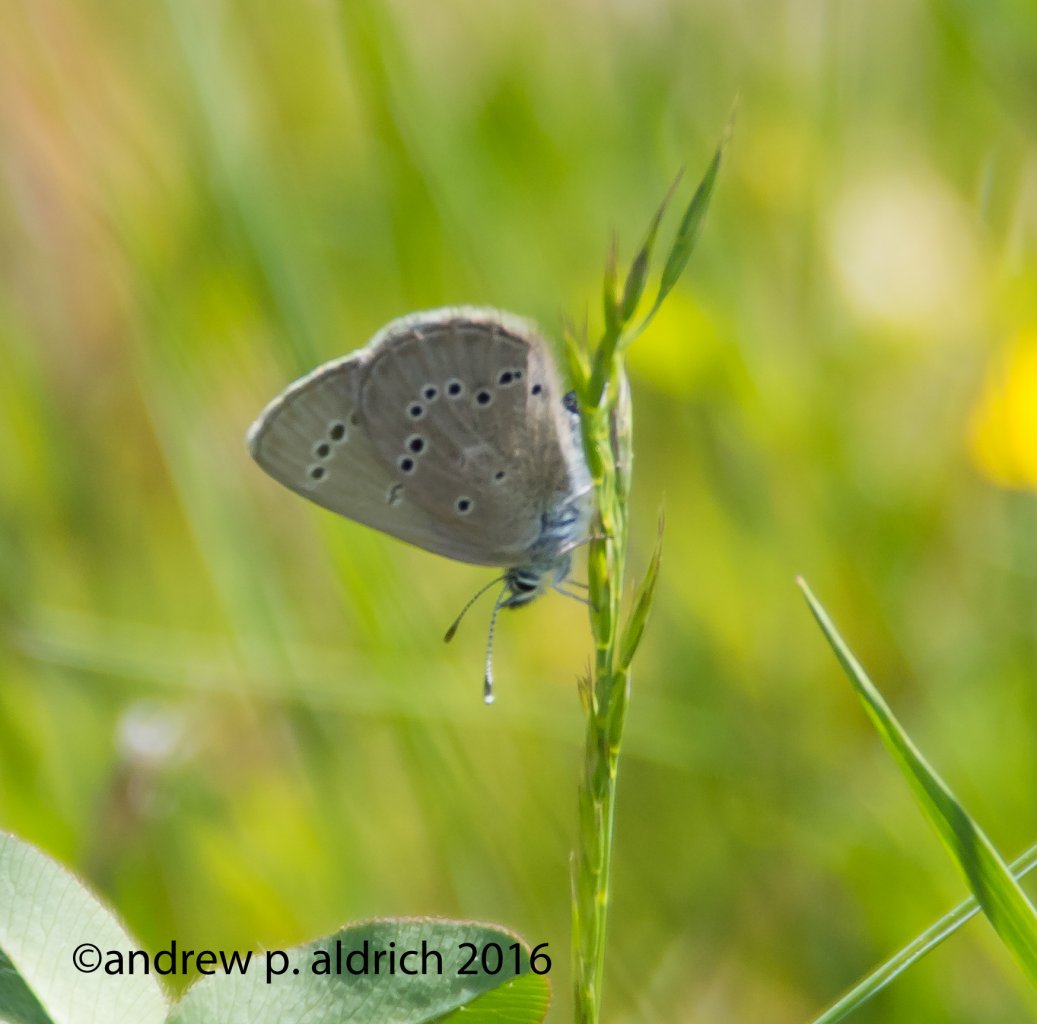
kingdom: Animalia
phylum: Arthropoda
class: Insecta
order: Lepidoptera
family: Lycaenidae
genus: Glaucopsyche
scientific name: Glaucopsyche lygdamus
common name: Silvery Blue
